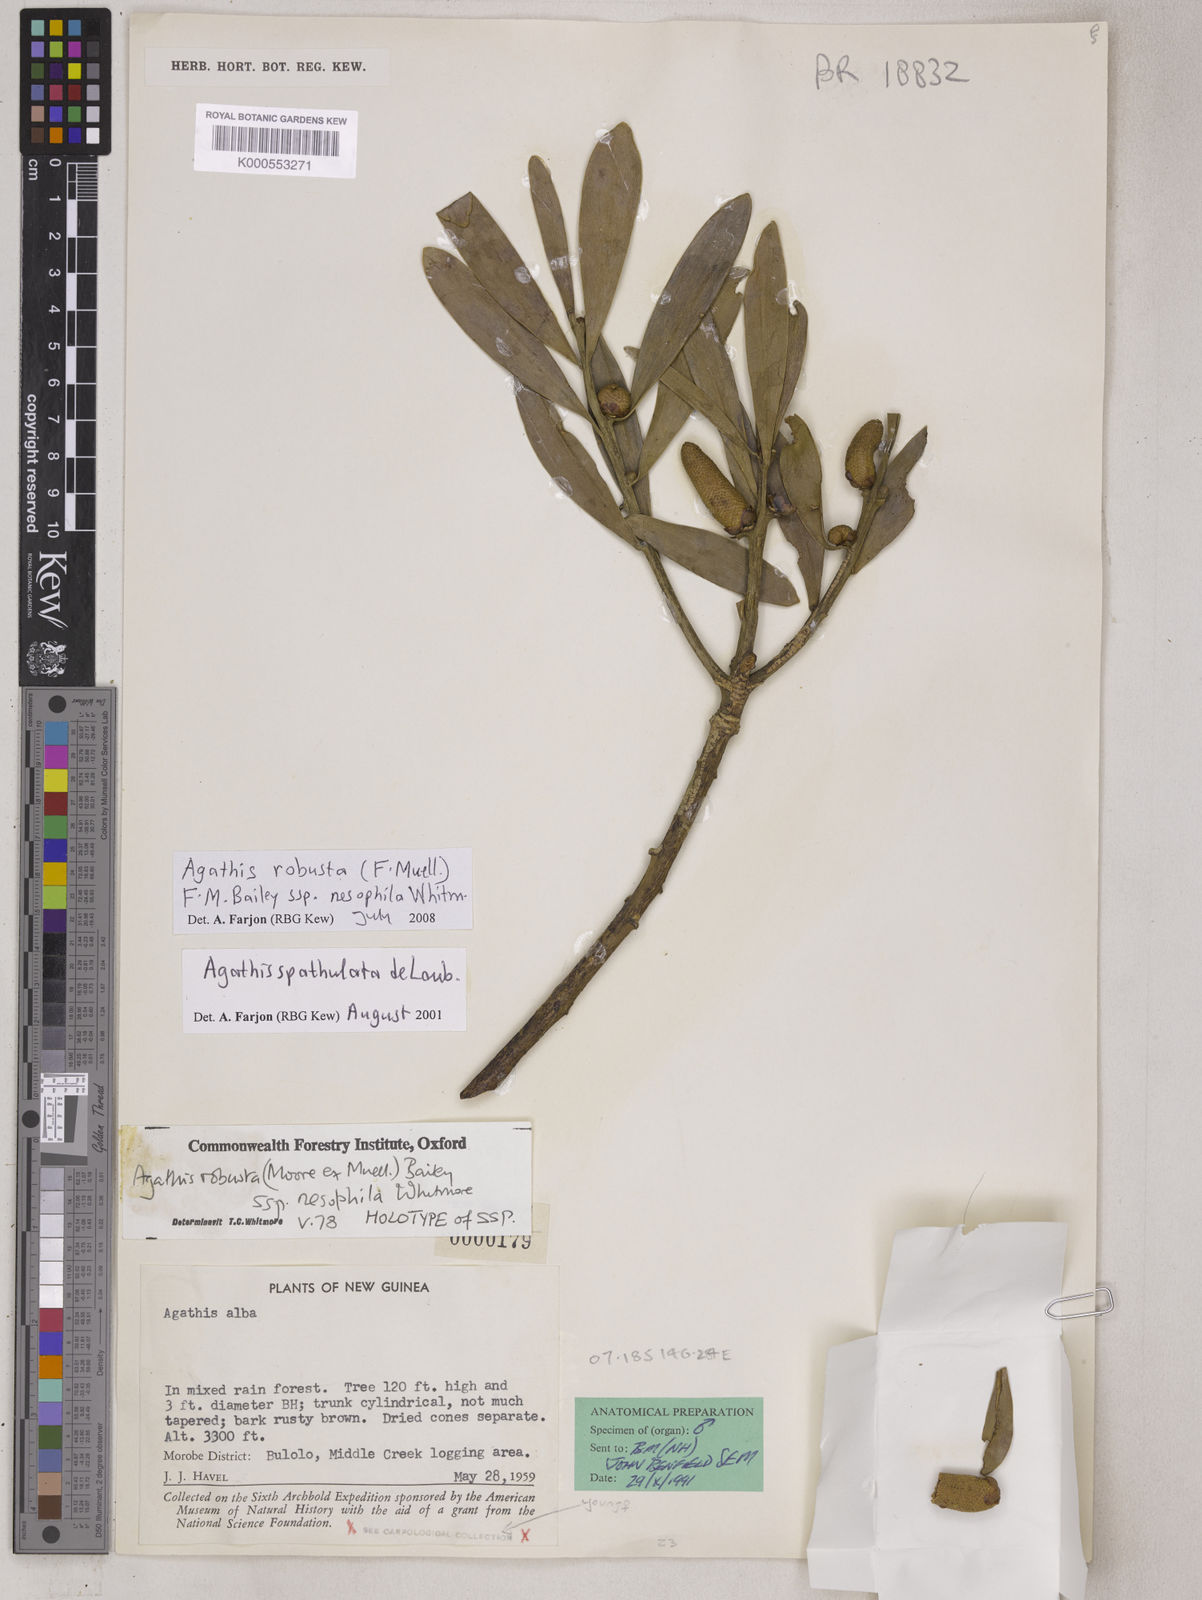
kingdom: Plantae
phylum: Tracheophyta
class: Pinopsida
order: Pinales
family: Araucariaceae
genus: Agathis
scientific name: Agathis robusta
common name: Australian-kauri
